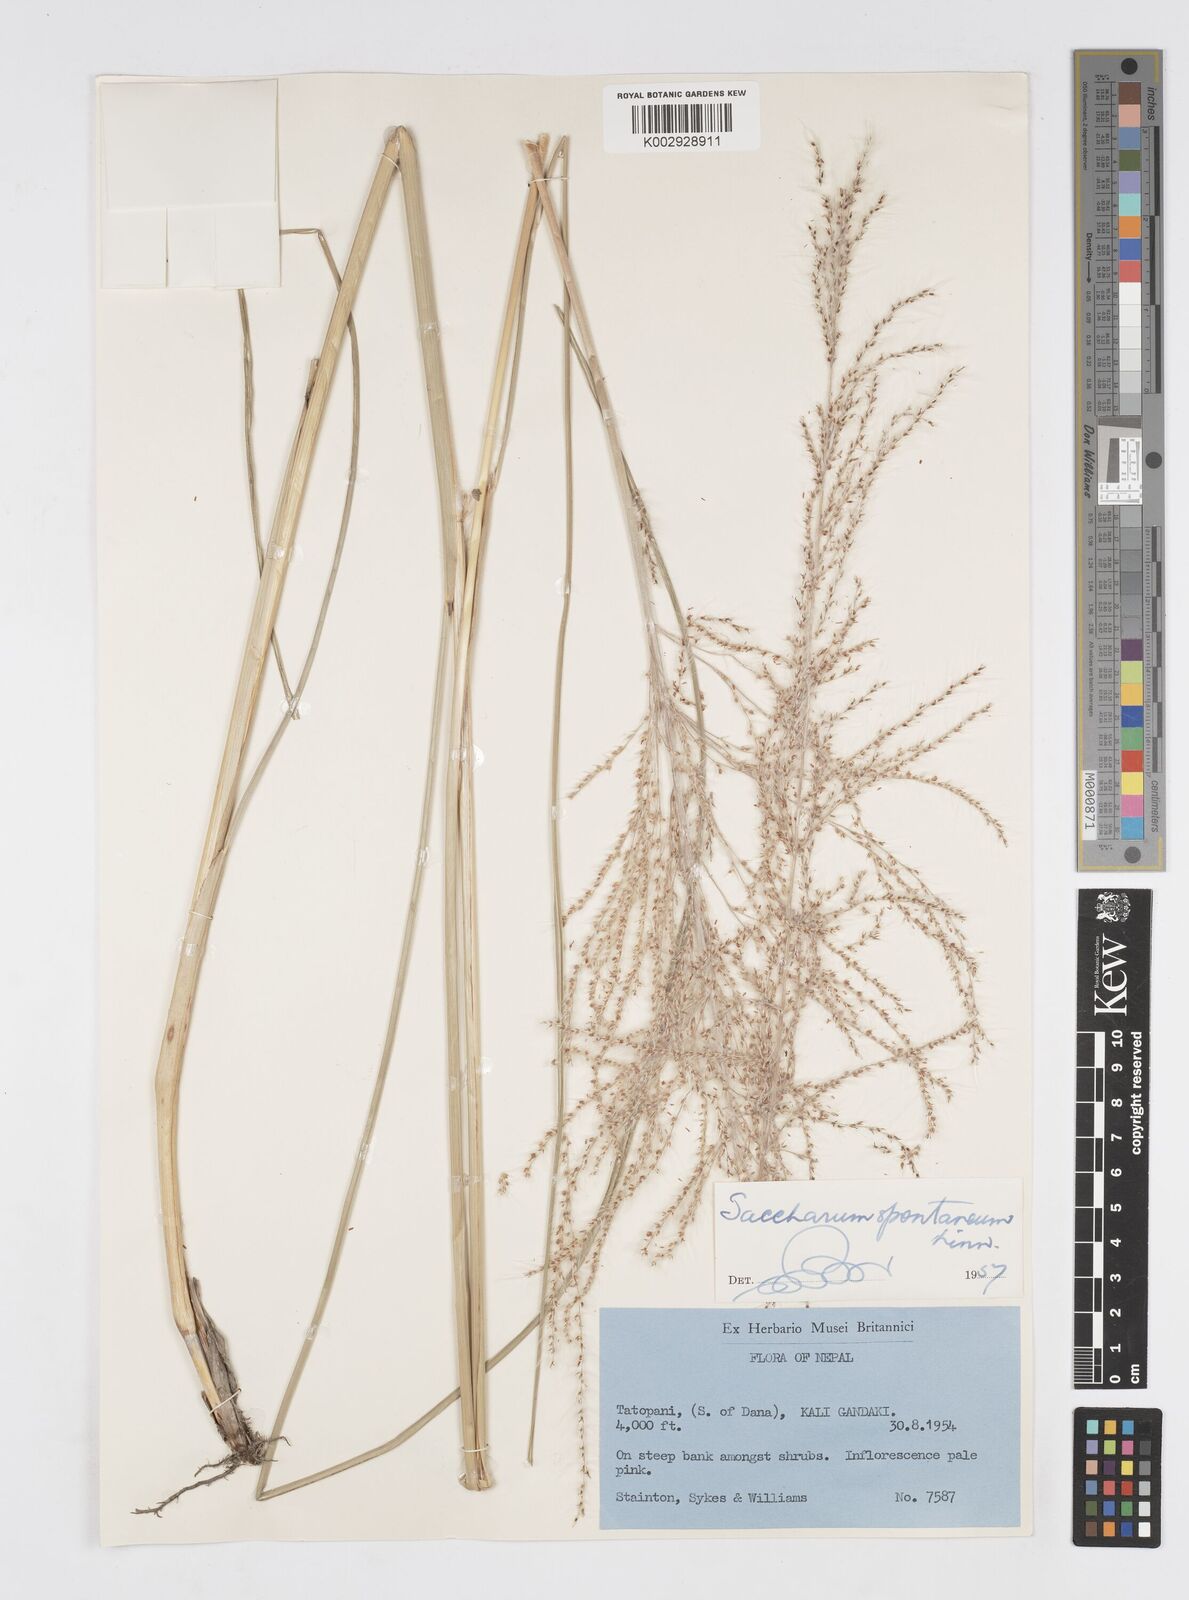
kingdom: Plantae
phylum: Tracheophyta
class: Liliopsida
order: Poales
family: Poaceae
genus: Saccharum
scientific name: Saccharum spontaneum
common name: Wild sugarcane
